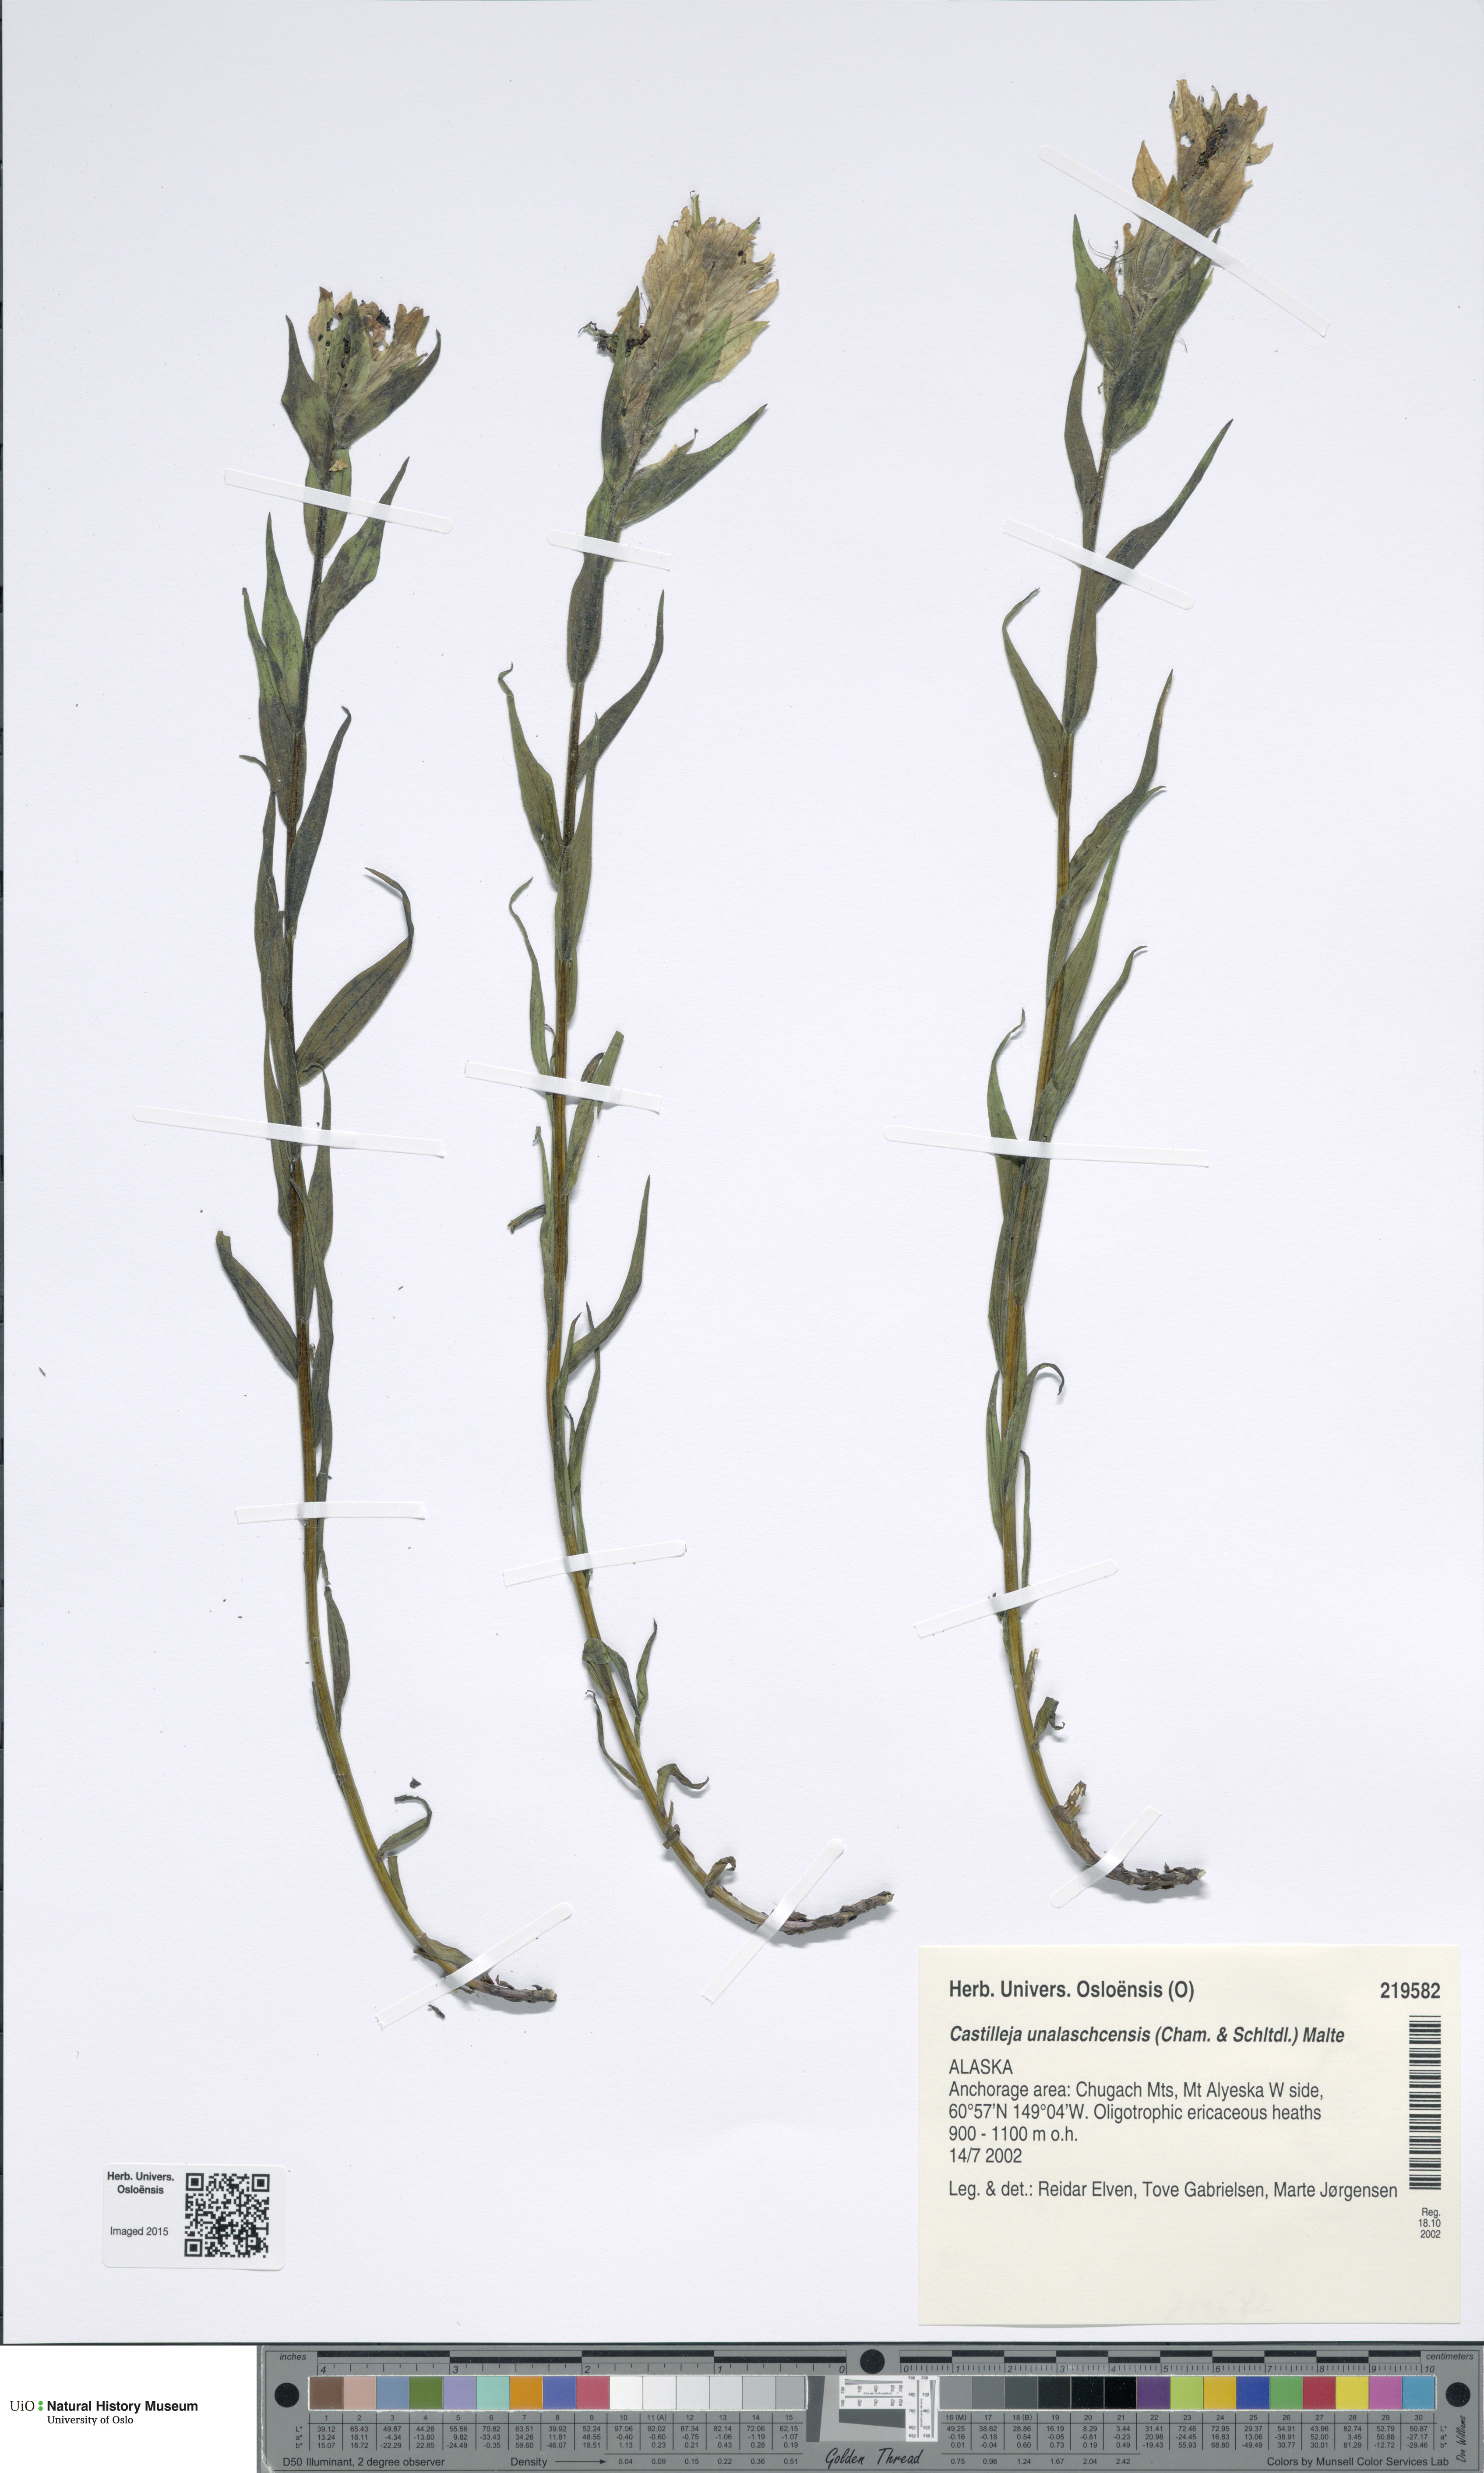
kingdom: Plantae
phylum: Tracheophyta
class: Magnoliopsida
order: Lamiales
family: Orobanchaceae
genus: Castilleja
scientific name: Castilleja unalaschcensis
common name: Unalaska paintbrush
